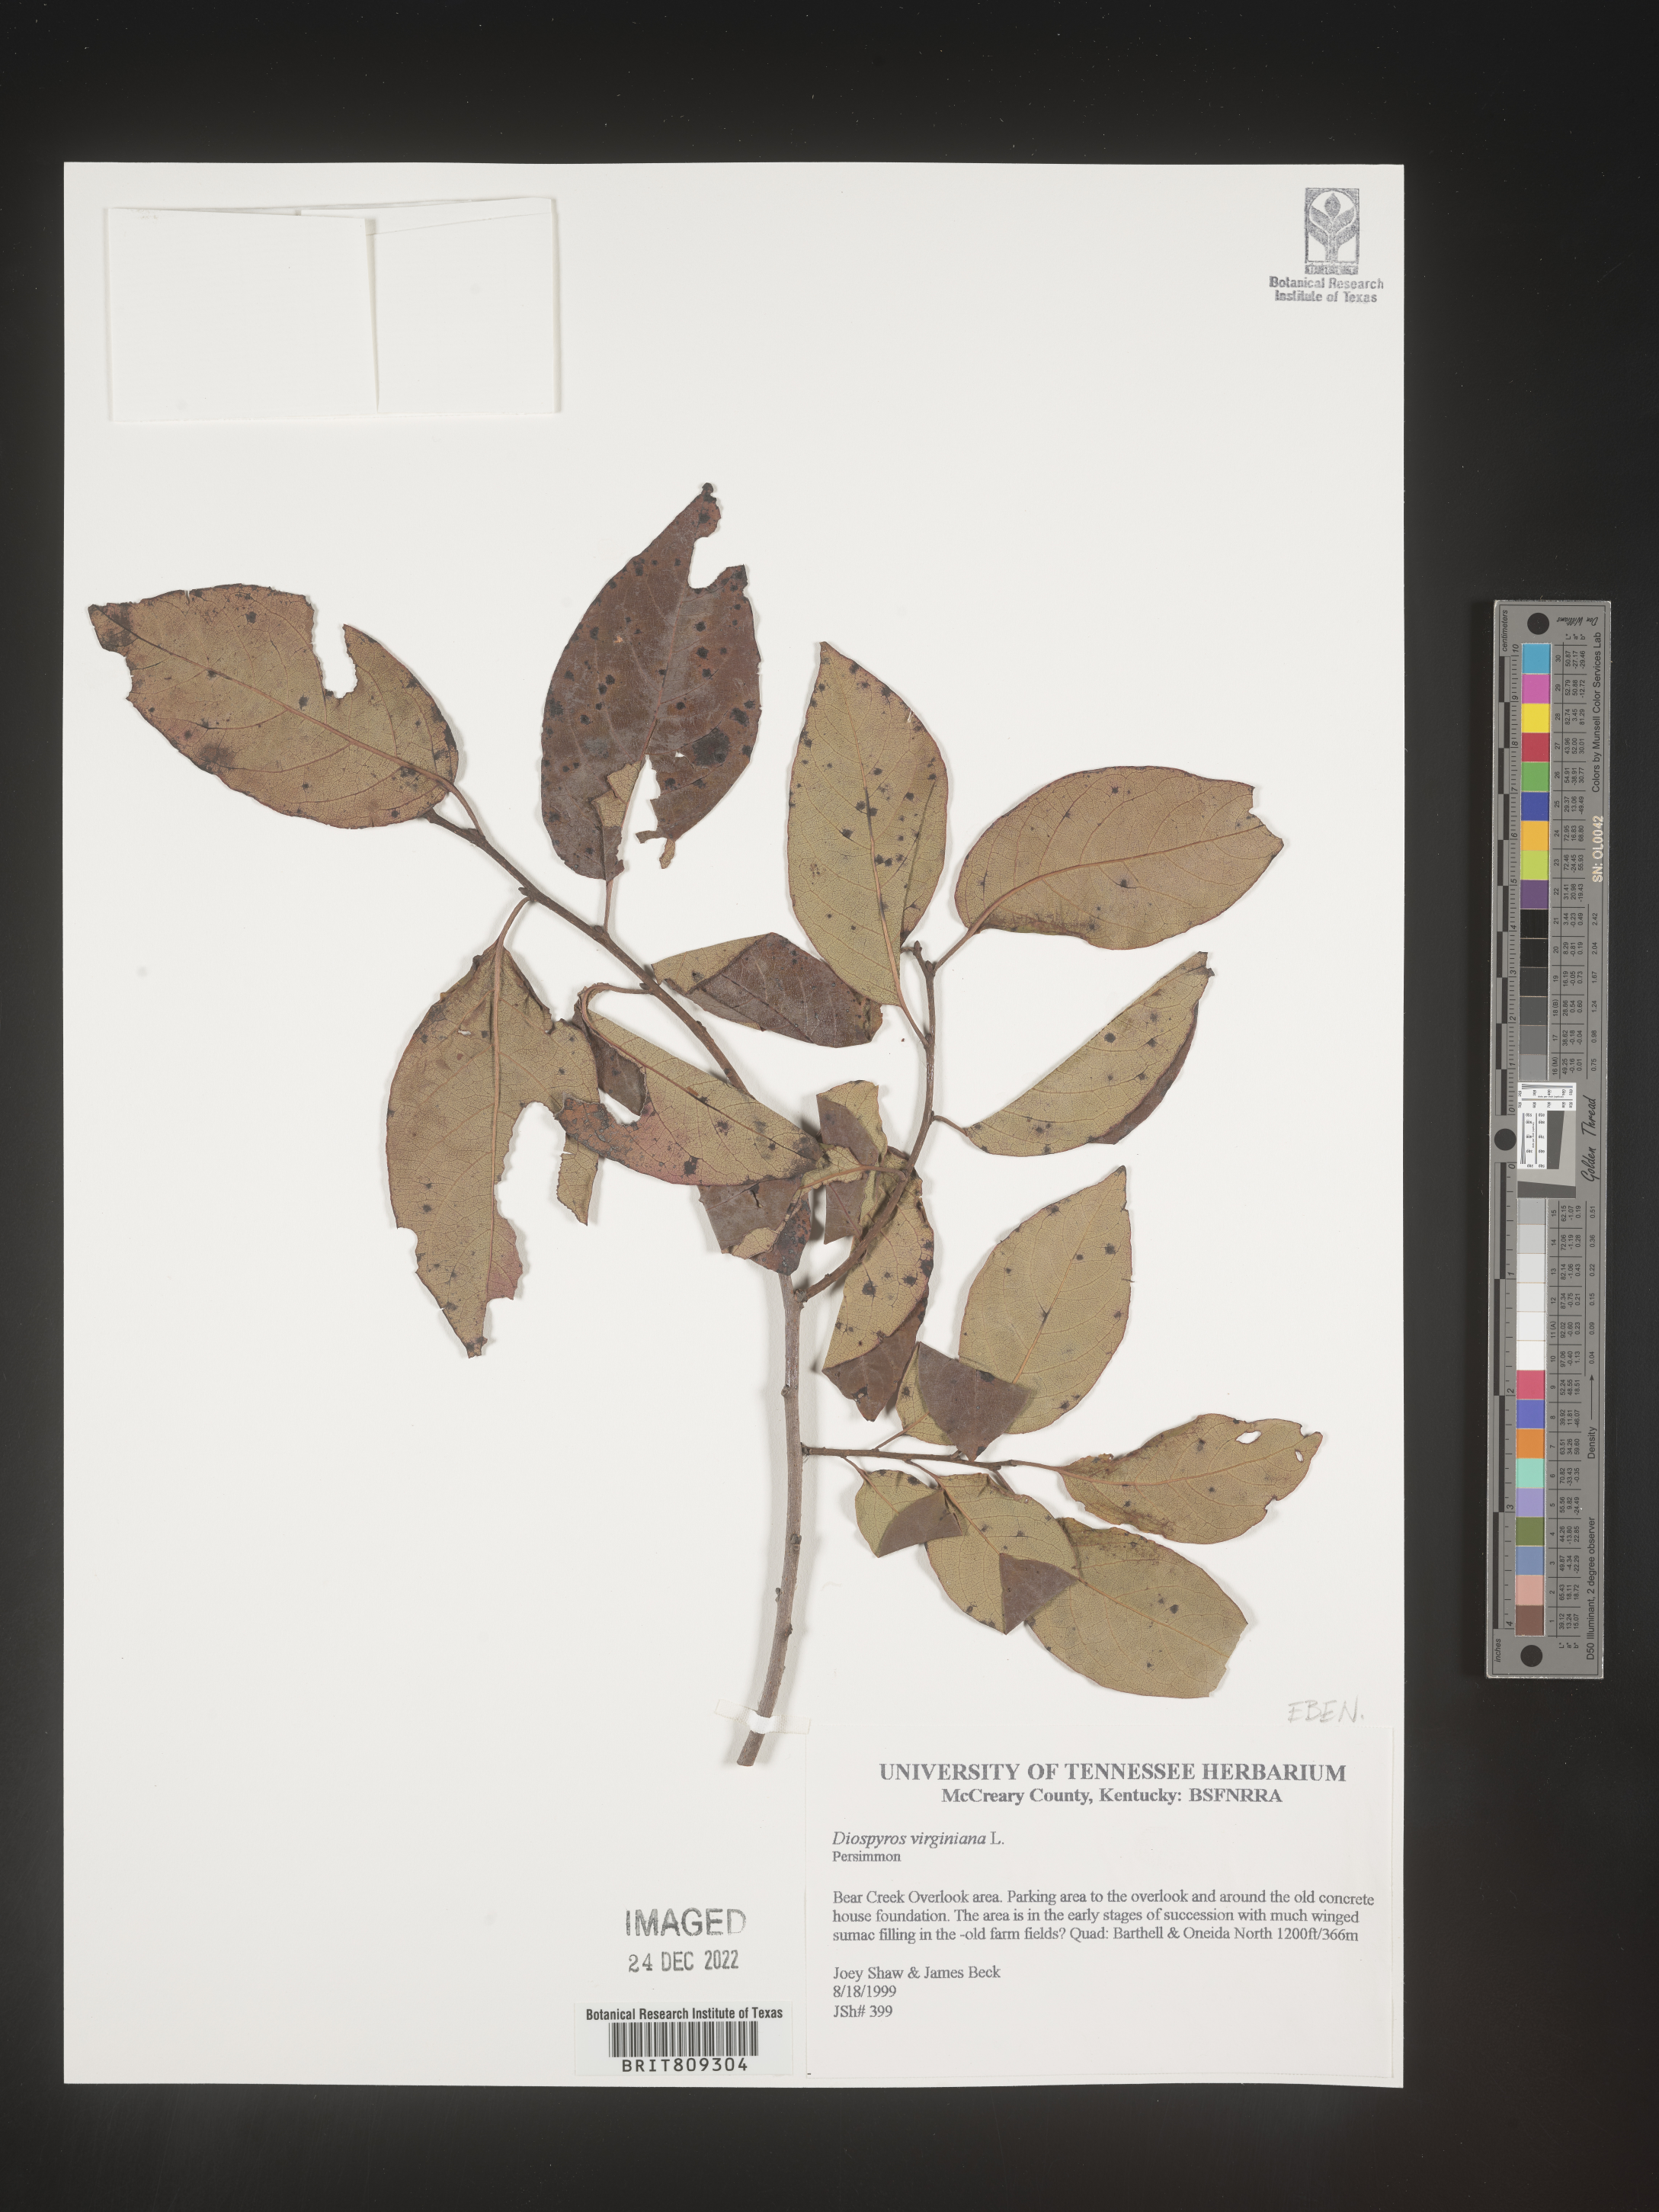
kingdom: Plantae
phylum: Tracheophyta
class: Magnoliopsida
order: Ericales
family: Ebenaceae
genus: Diospyros
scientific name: Diospyros virginiana
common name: Persimmon
